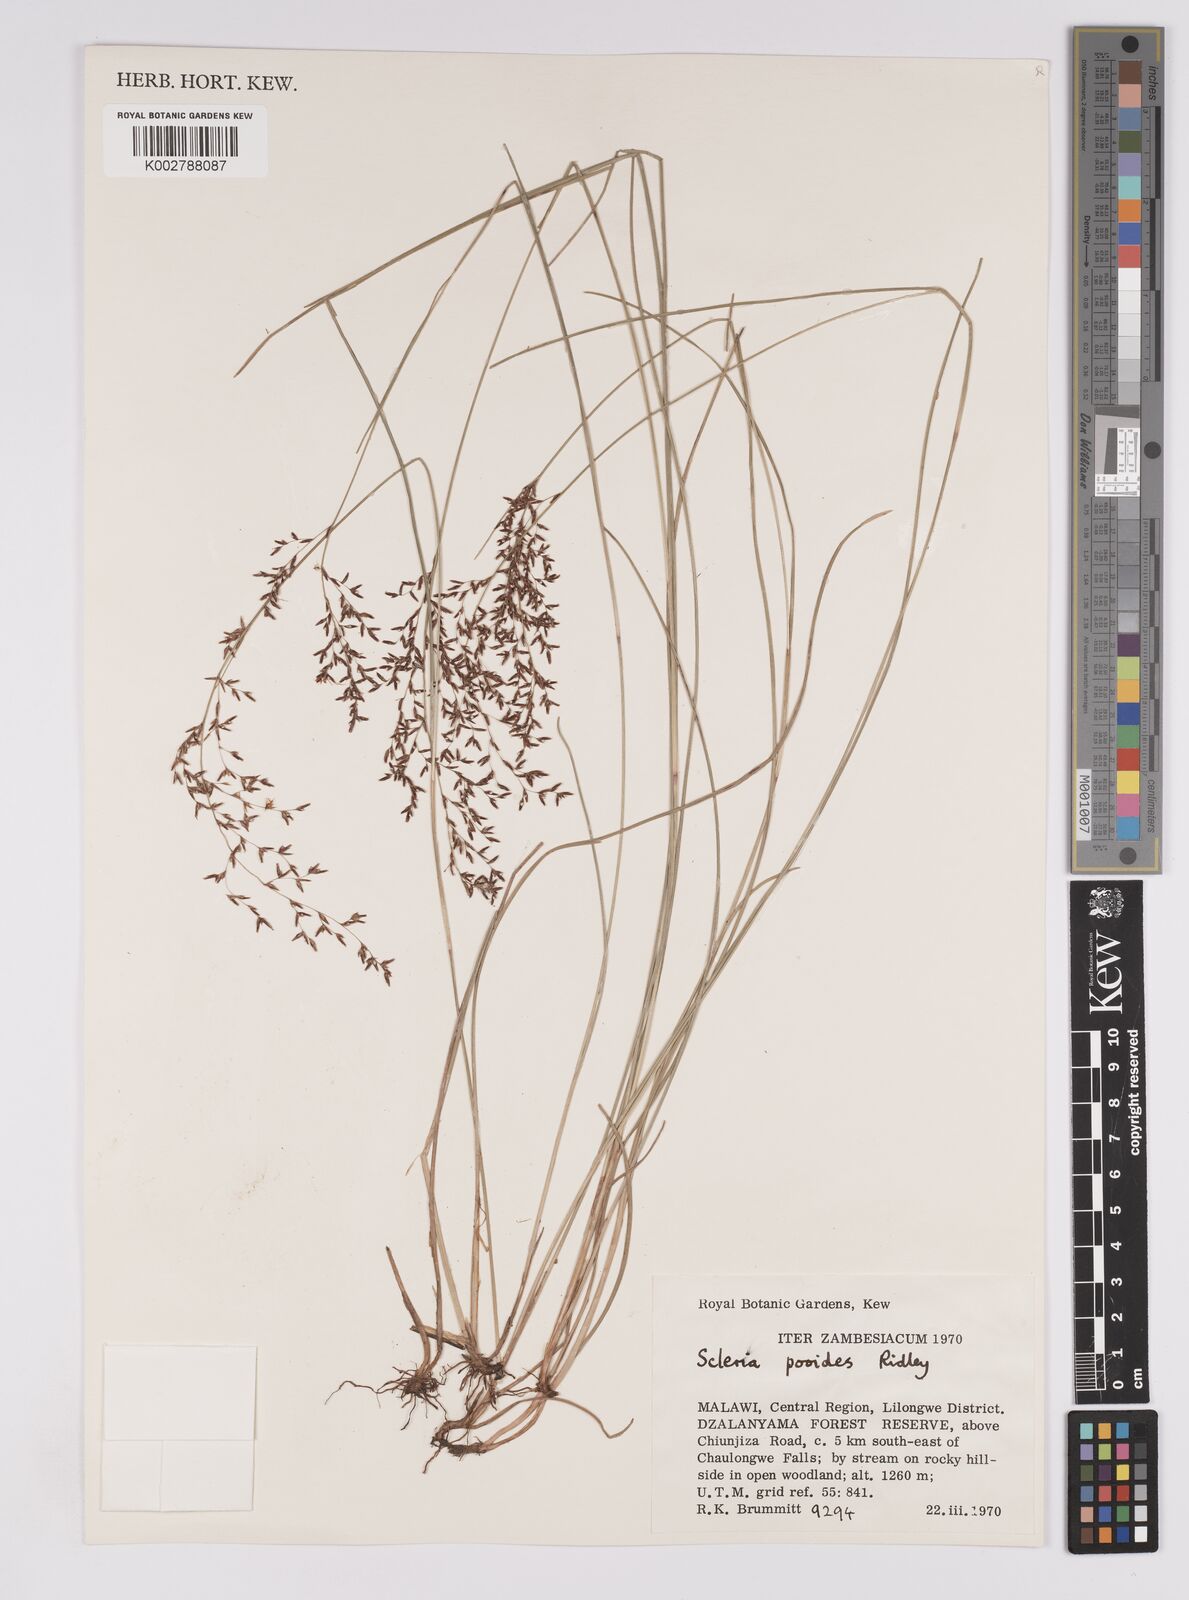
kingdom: Plantae
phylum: Tracheophyta
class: Liliopsida
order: Poales
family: Cyperaceae
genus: Scleria
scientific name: Scleria pooides
